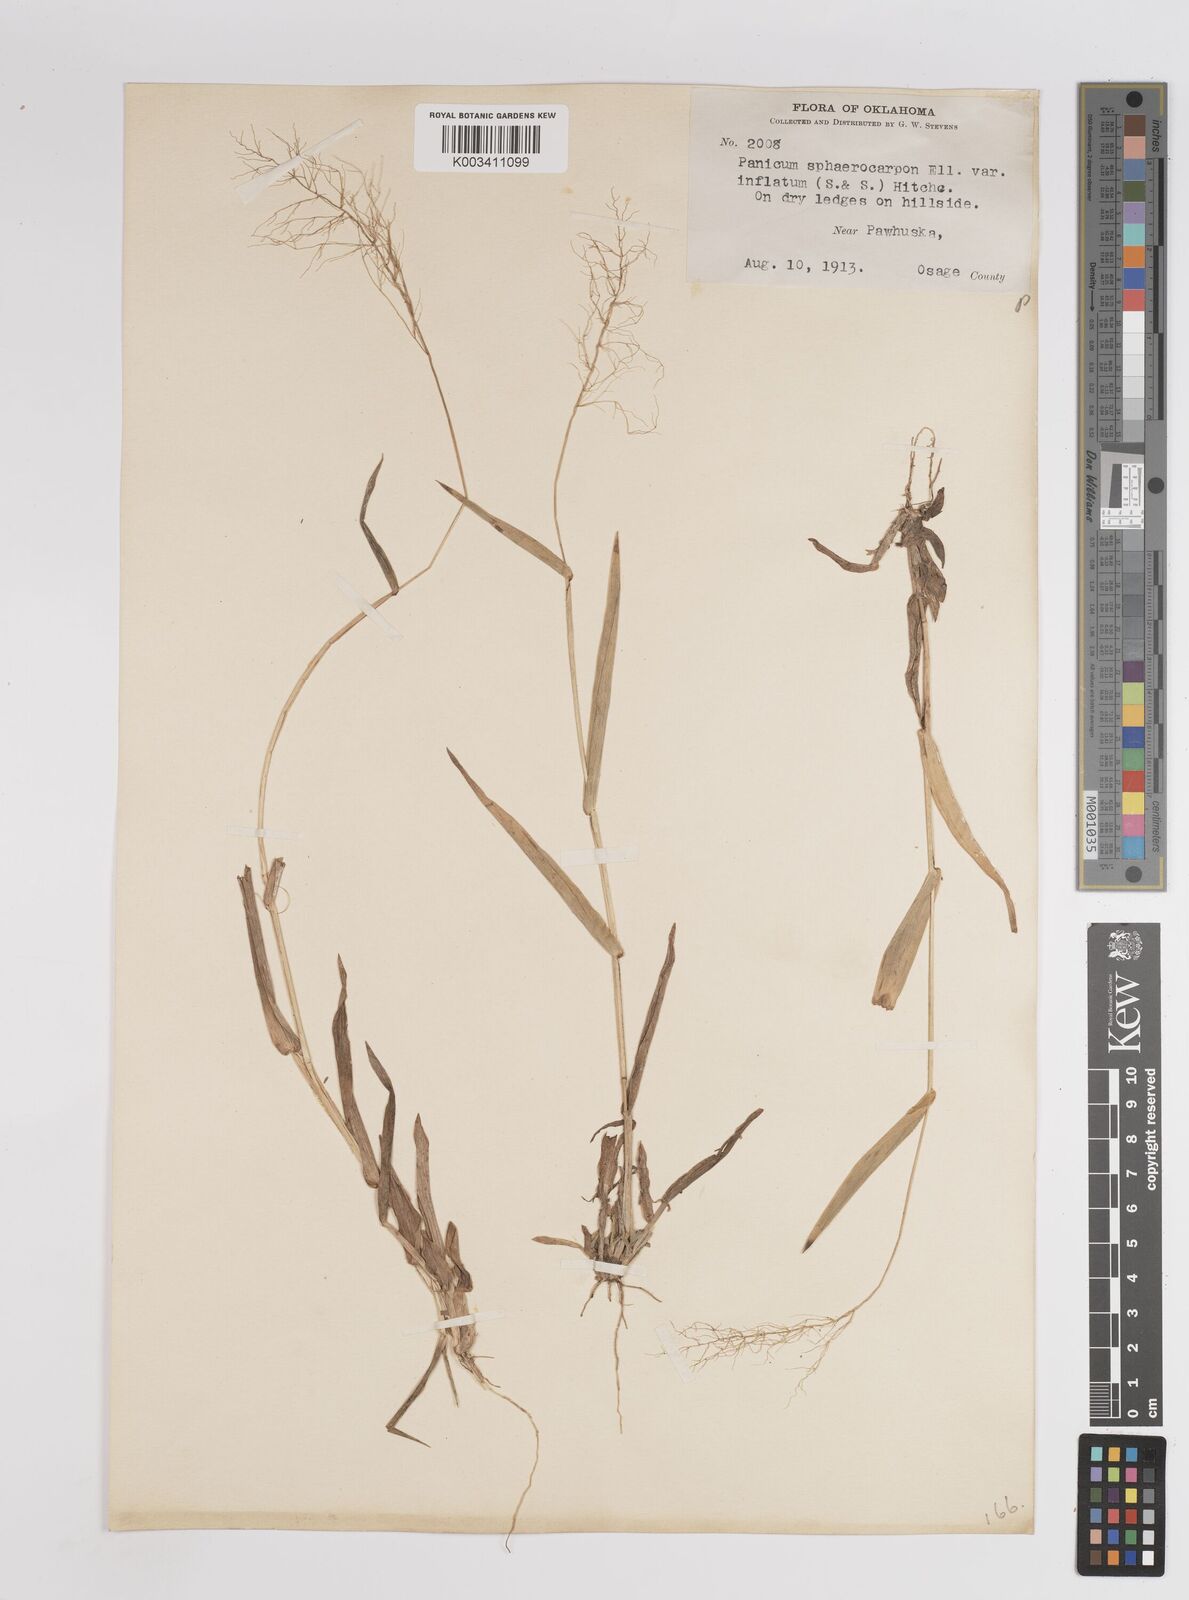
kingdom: Plantae
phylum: Tracheophyta
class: Liliopsida
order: Poales
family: Poaceae
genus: Dichanthelium
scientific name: Dichanthelium sphaerocarpon
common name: Round-fruited panicgrass
